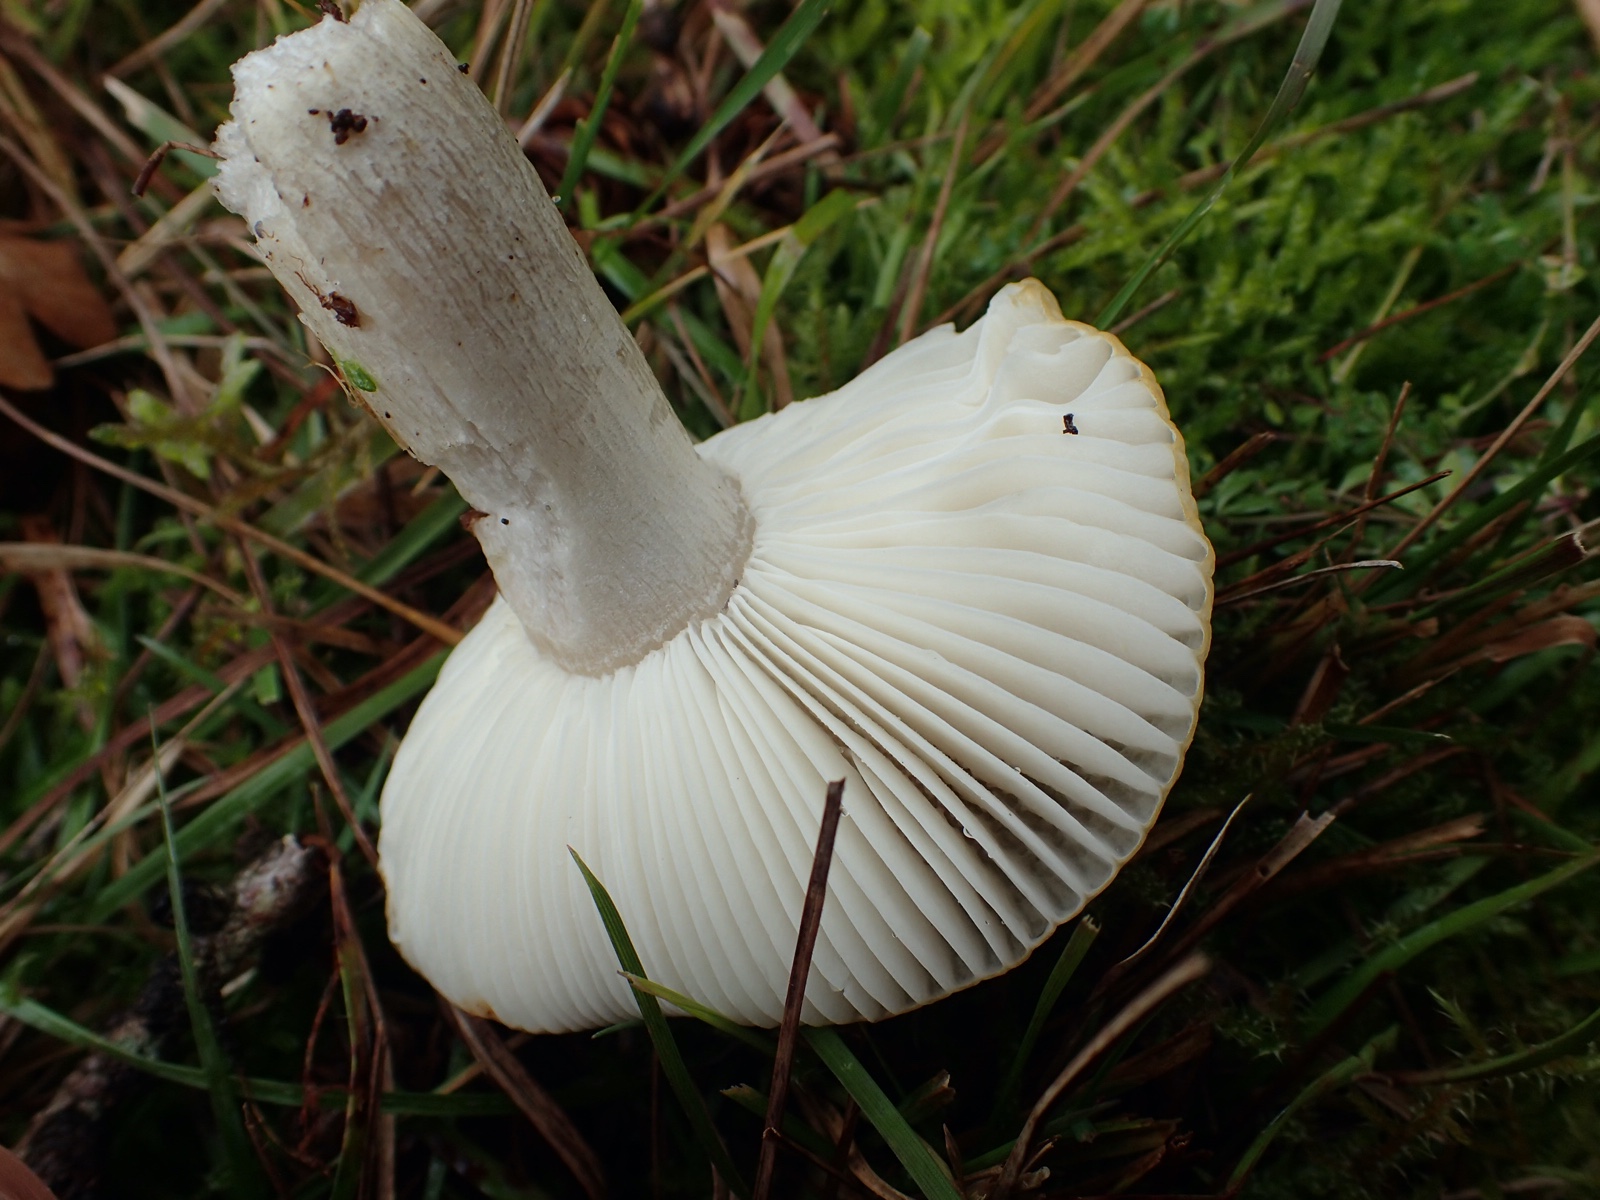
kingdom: Fungi
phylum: Basidiomycota
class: Agaricomycetes
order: Russulales
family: Russulaceae
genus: Russula
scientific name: Russula ochroleuca
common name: okkergul skørhat
